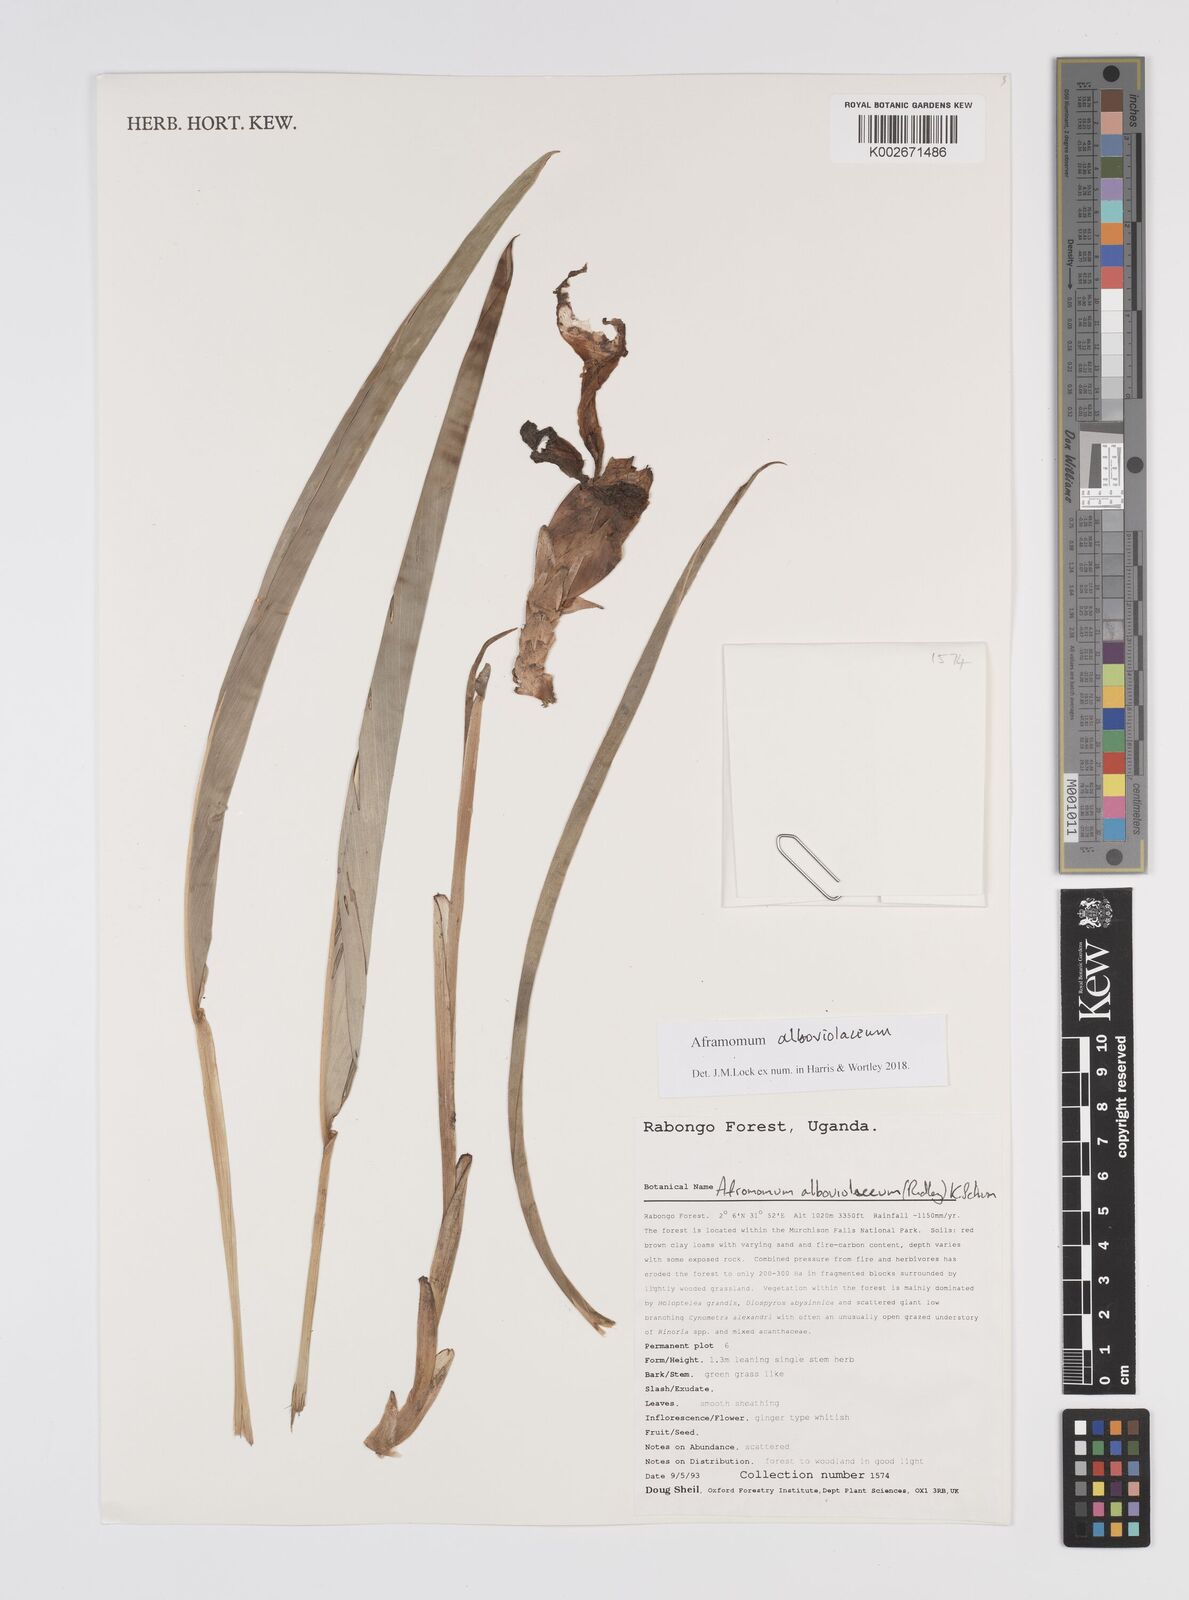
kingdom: Plantae
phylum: Tracheophyta
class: Liliopsida
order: Zingiberales
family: Zingiberaceae
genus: Aframomum
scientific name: Aframomum alboviolaceum
